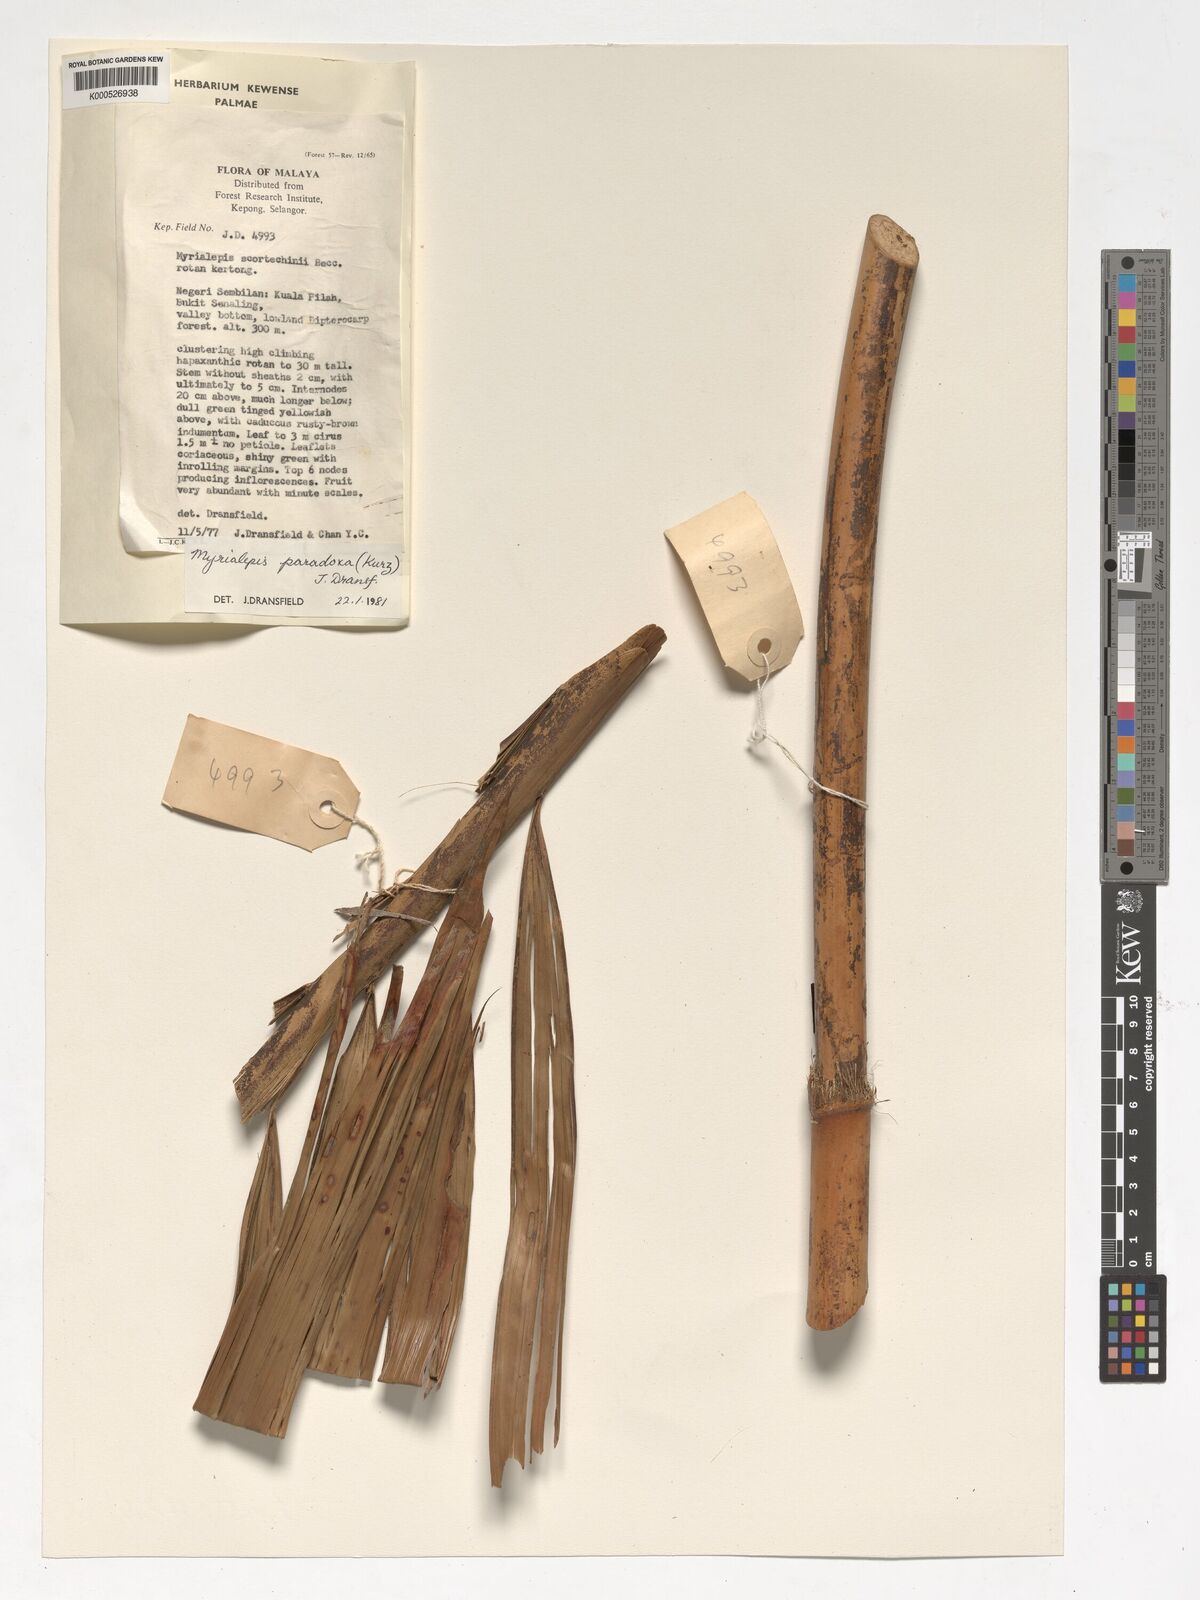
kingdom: Plantae
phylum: Tracheophyta
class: Liliopsida
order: Arecales
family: Arecaceae
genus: Myrialepis
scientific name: Myrialepis paradoxa
